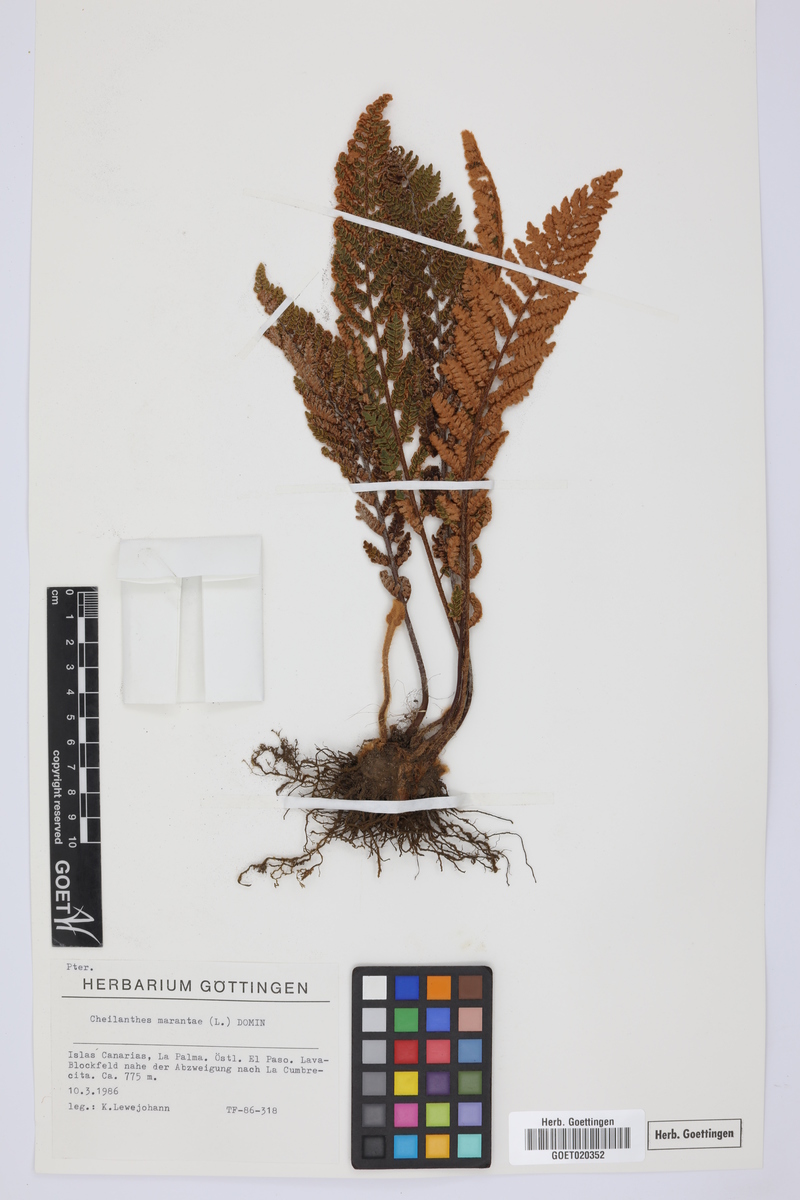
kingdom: Plantae
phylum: Tracheophyta
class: Polypodiopsida
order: Polypodiales
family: Pteridaceae
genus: Paragymnopteris
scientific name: Paragymnopteris marantae
